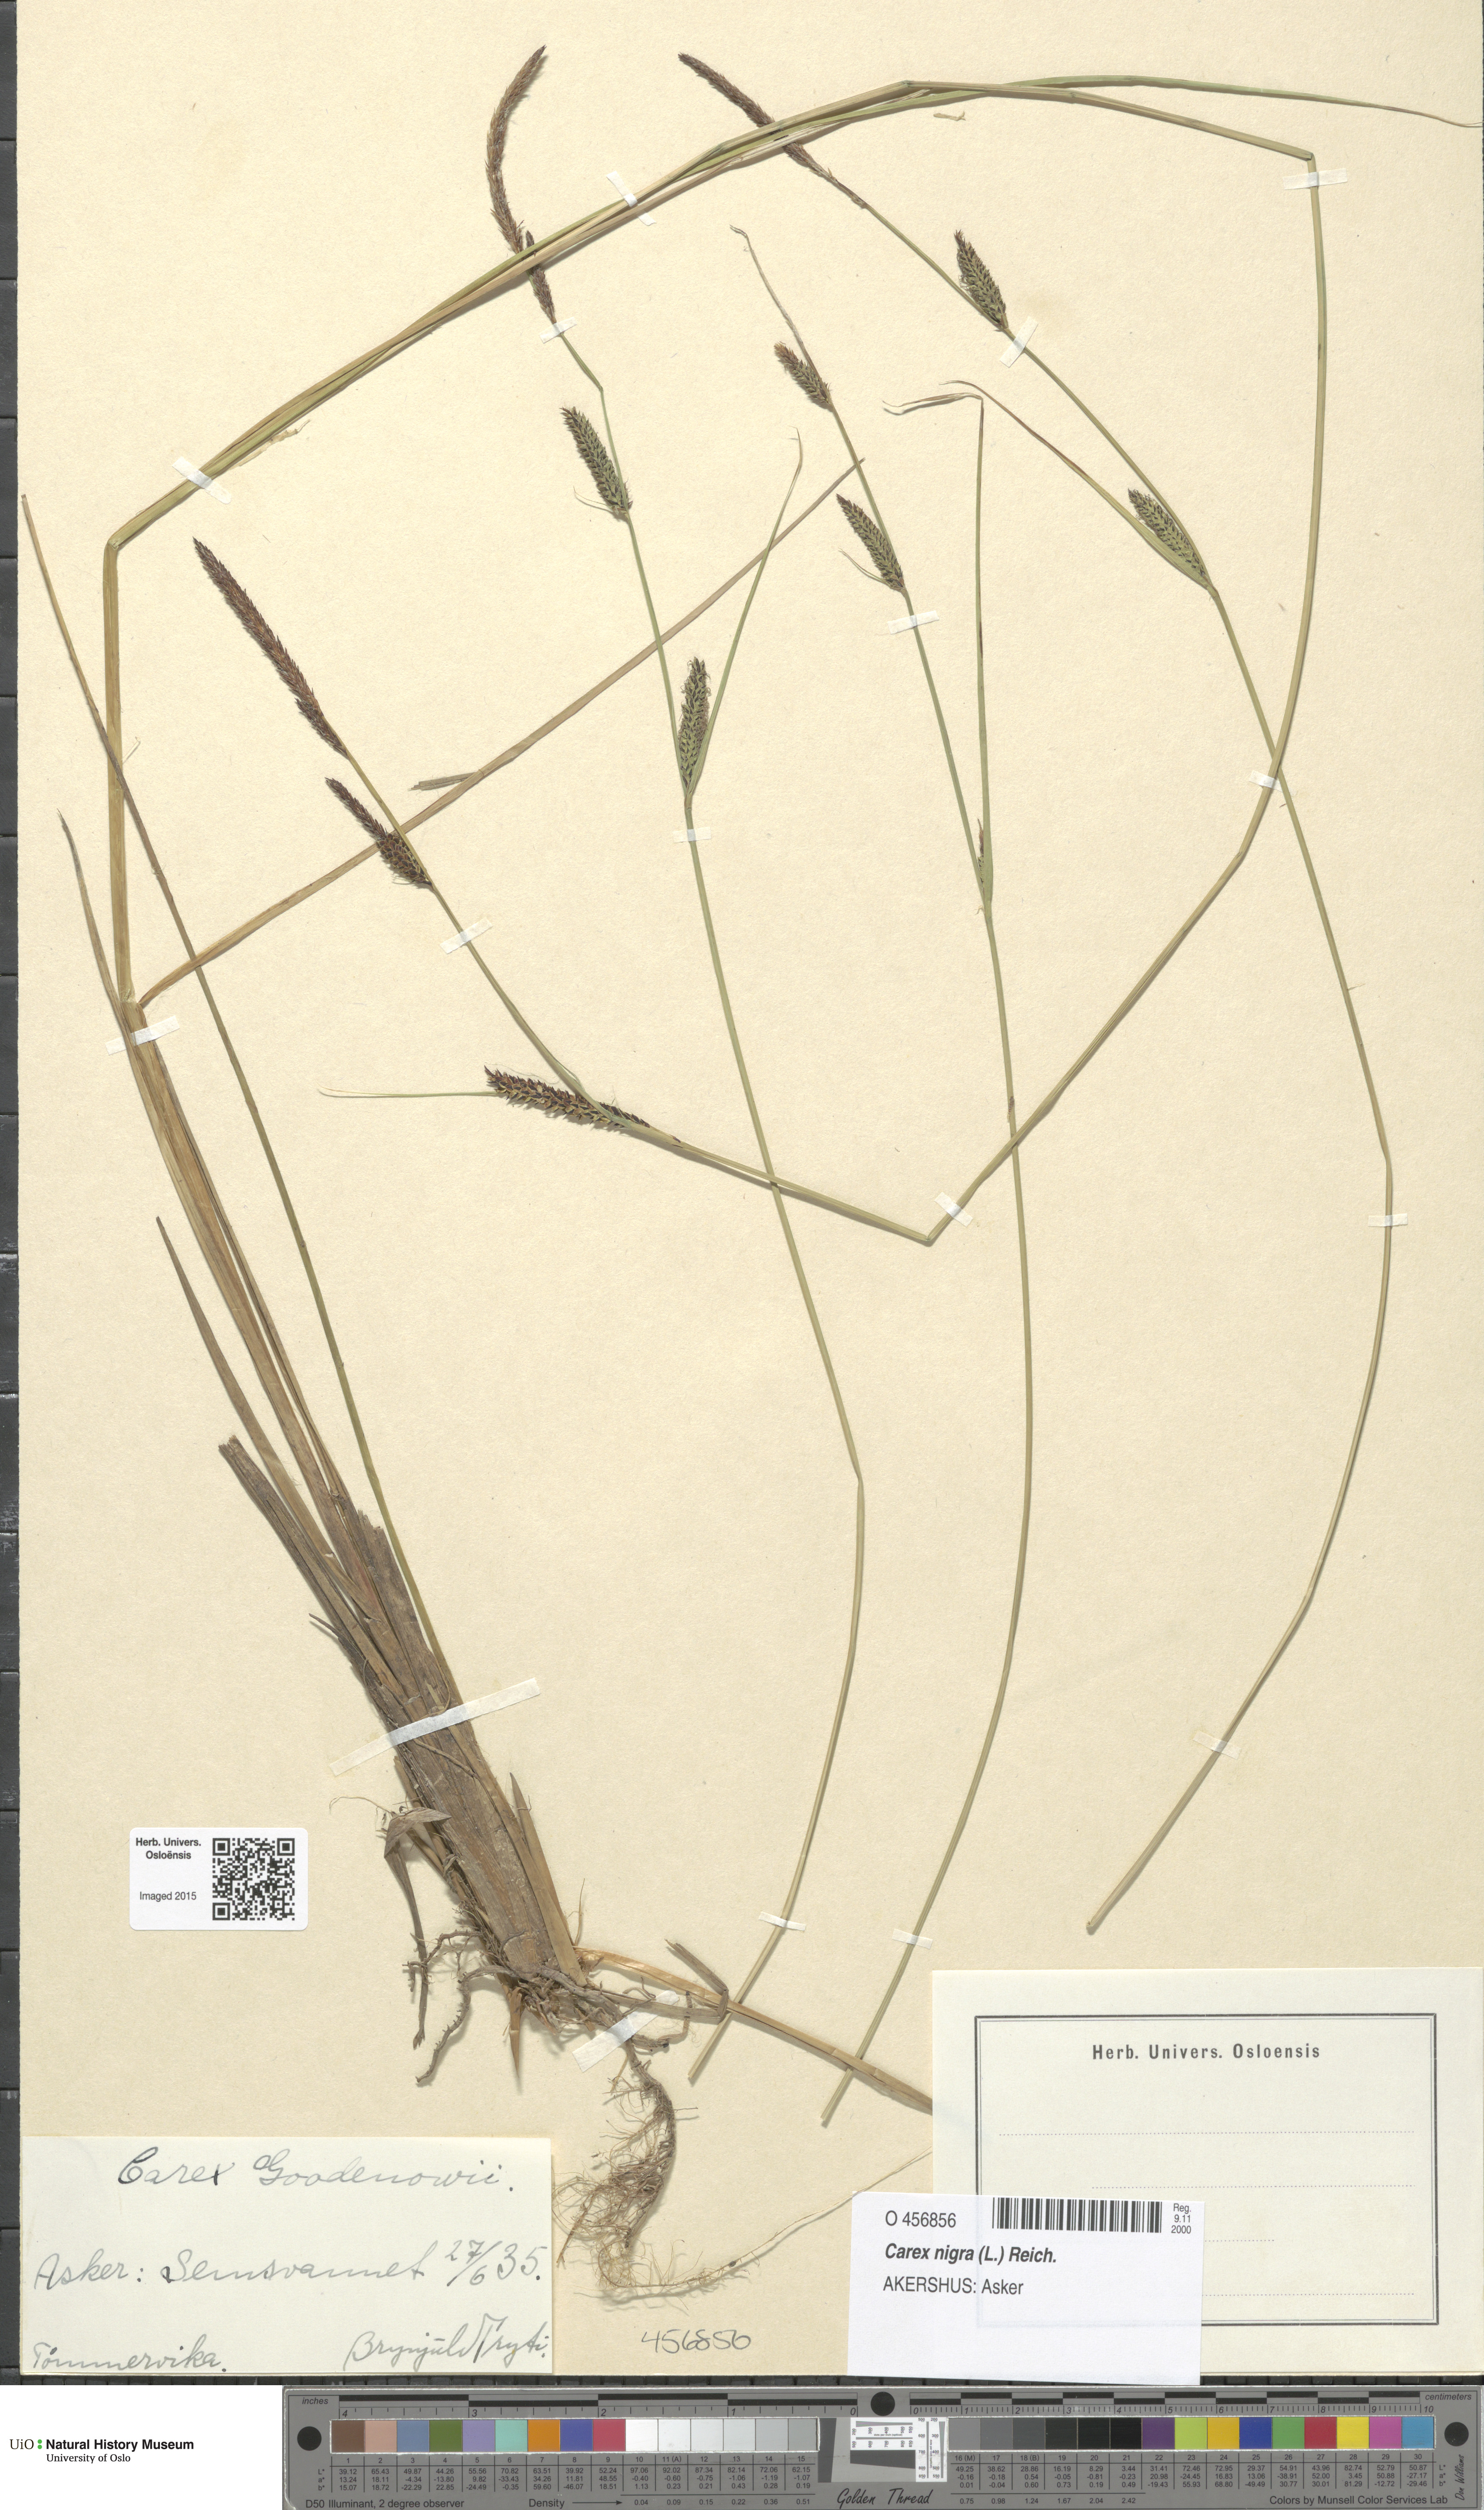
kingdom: Plantae
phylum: Tracheophyta
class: Liliopsida
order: Poales
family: Cyperaceae
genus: Carex
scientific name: Carex nigra
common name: Common sedge
